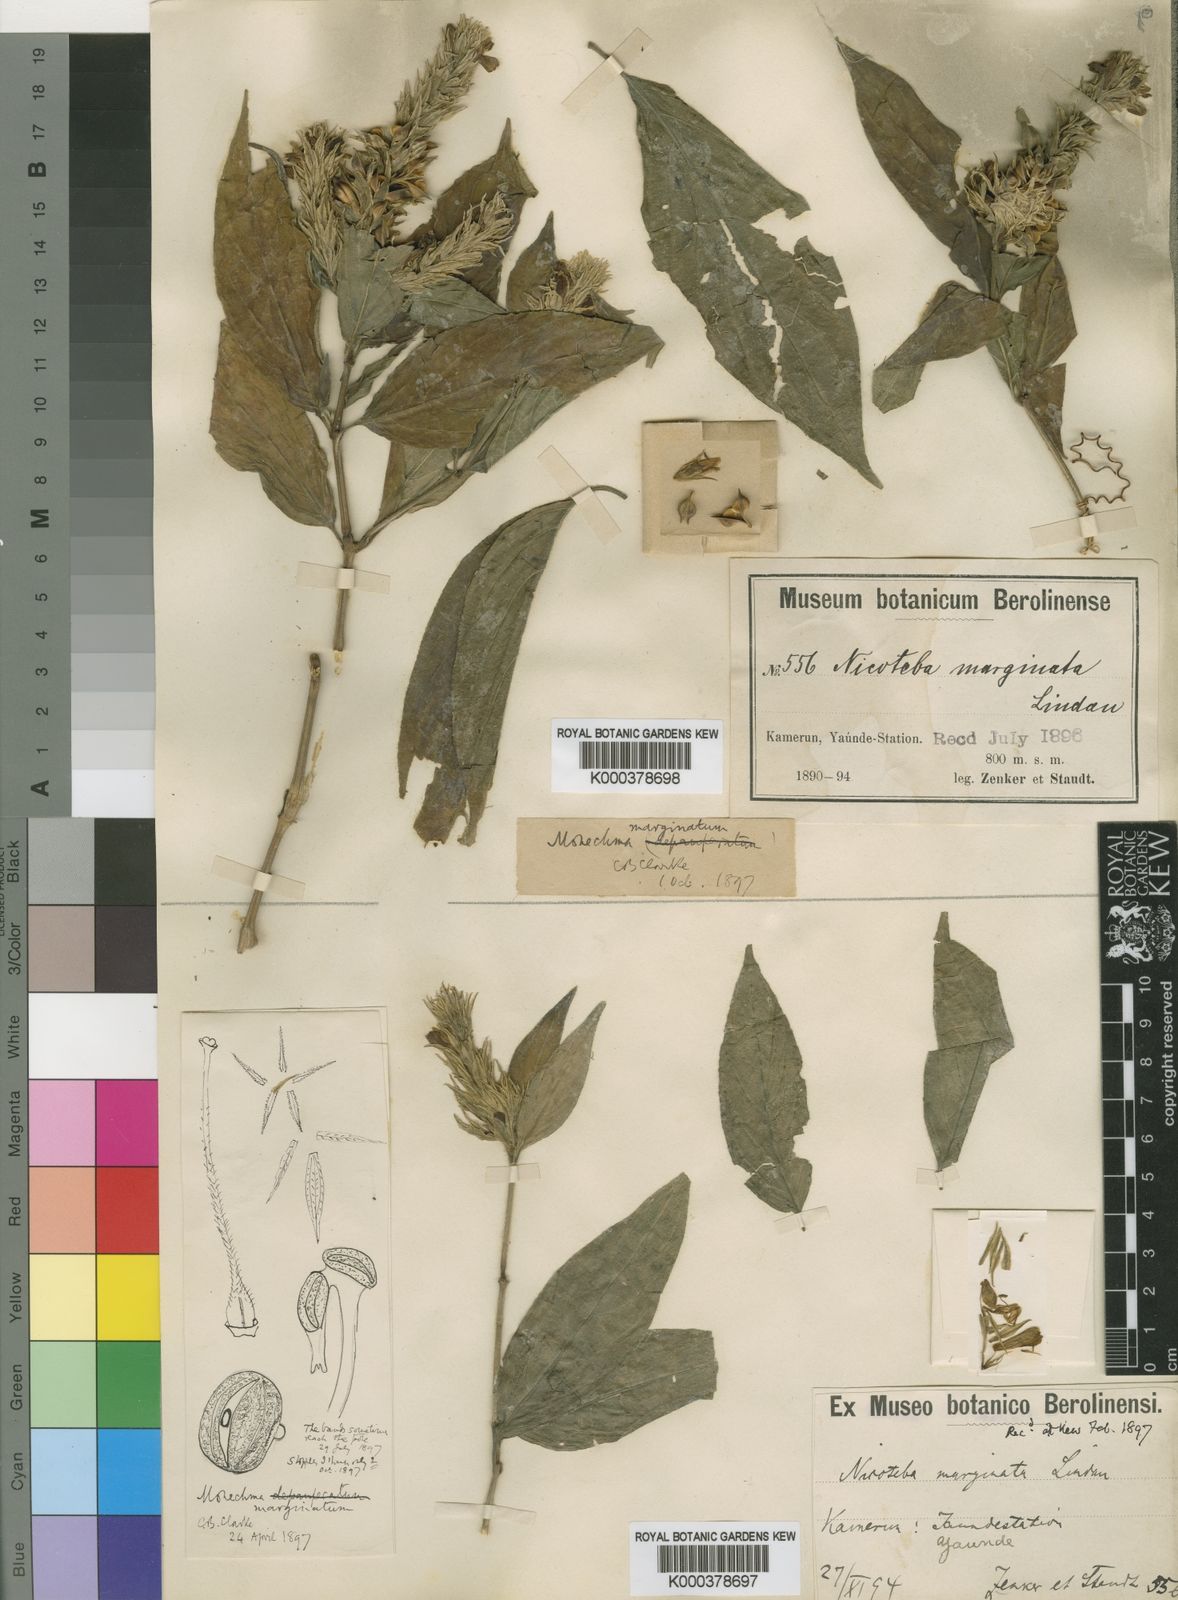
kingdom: Plantae
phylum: Tracheophyta
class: Magnoliopsida
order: Lamiales
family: Acanthaceae
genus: Monechma
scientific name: Monechma depauperatum
